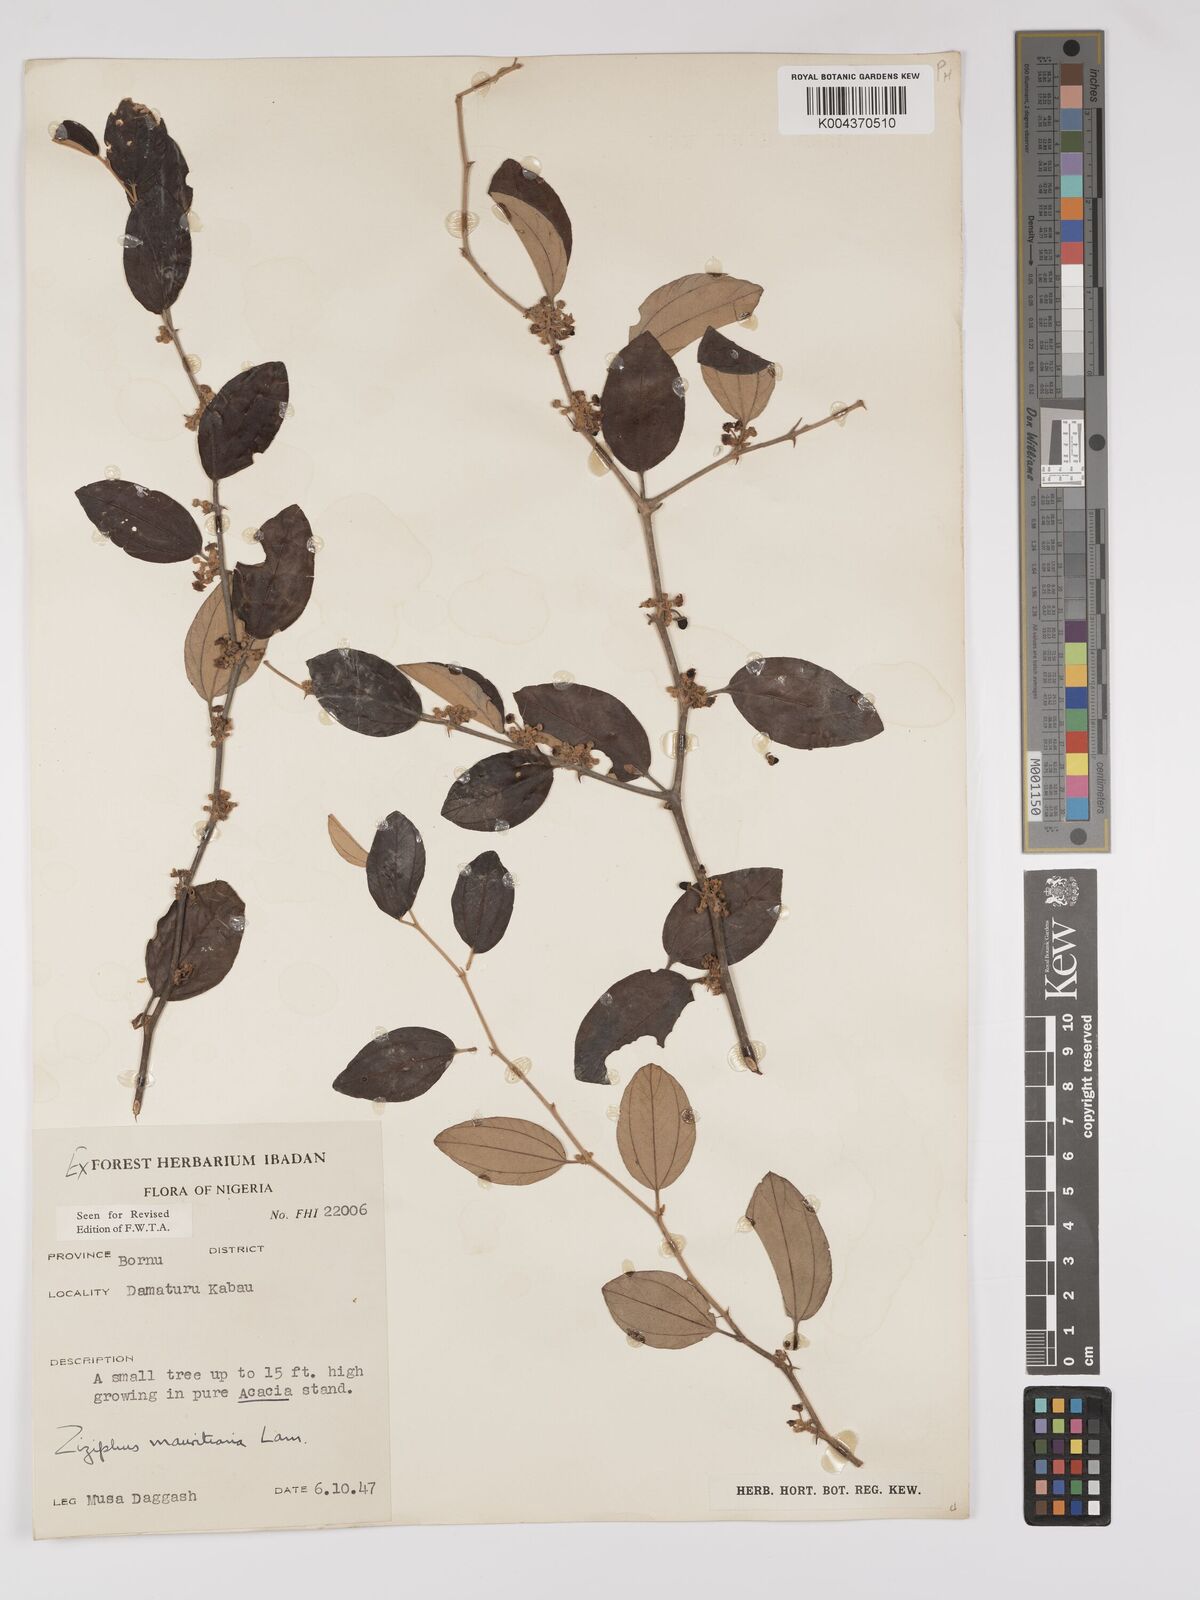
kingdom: Plantae
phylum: Tracheophyta
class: Magnoliopsida
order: Rosales
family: Rhamnaceae
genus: Ziziphus
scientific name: Ziziphus mauritiana
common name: Indian jujube
